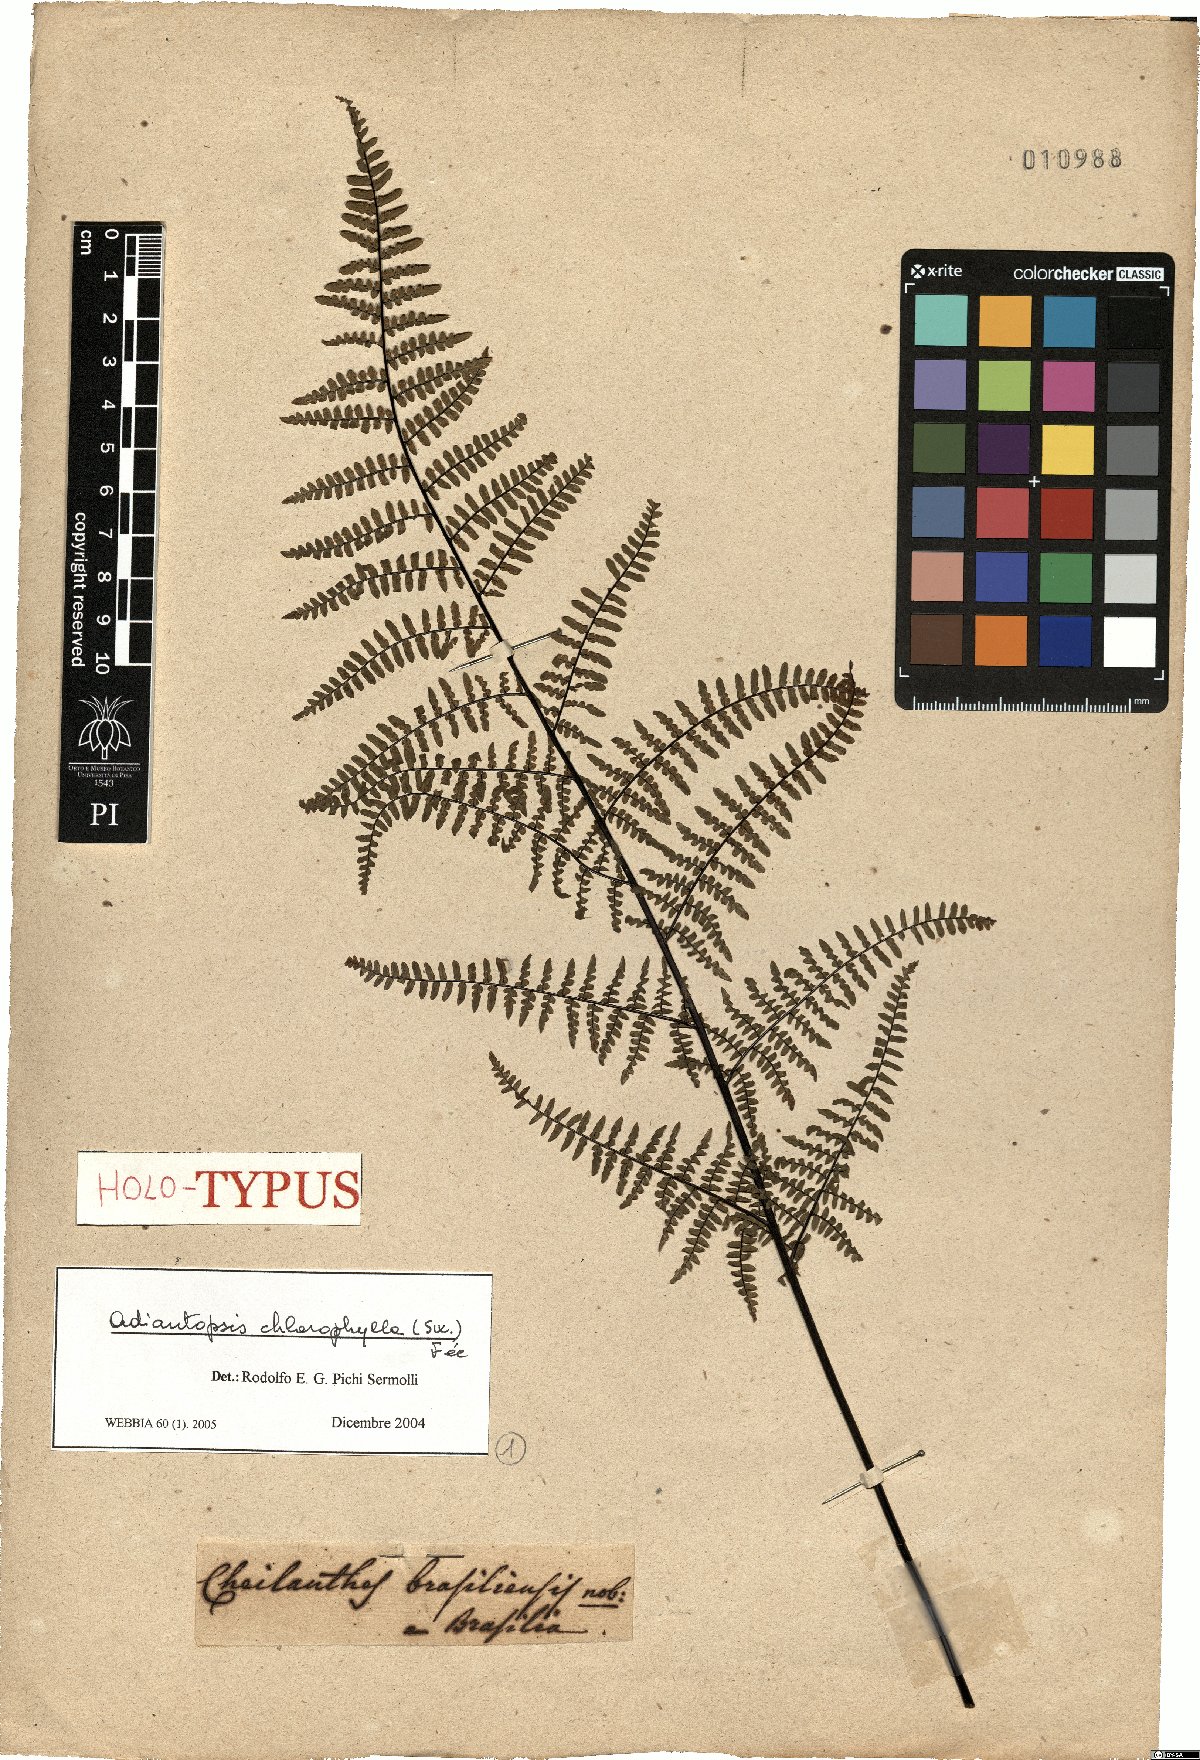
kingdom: Plantae
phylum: Tracheophyta
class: Polypodiopsida
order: Polypodiales
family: Pteridaceae
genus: Adiantopsis
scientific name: Adiantopsis chlorophylla
